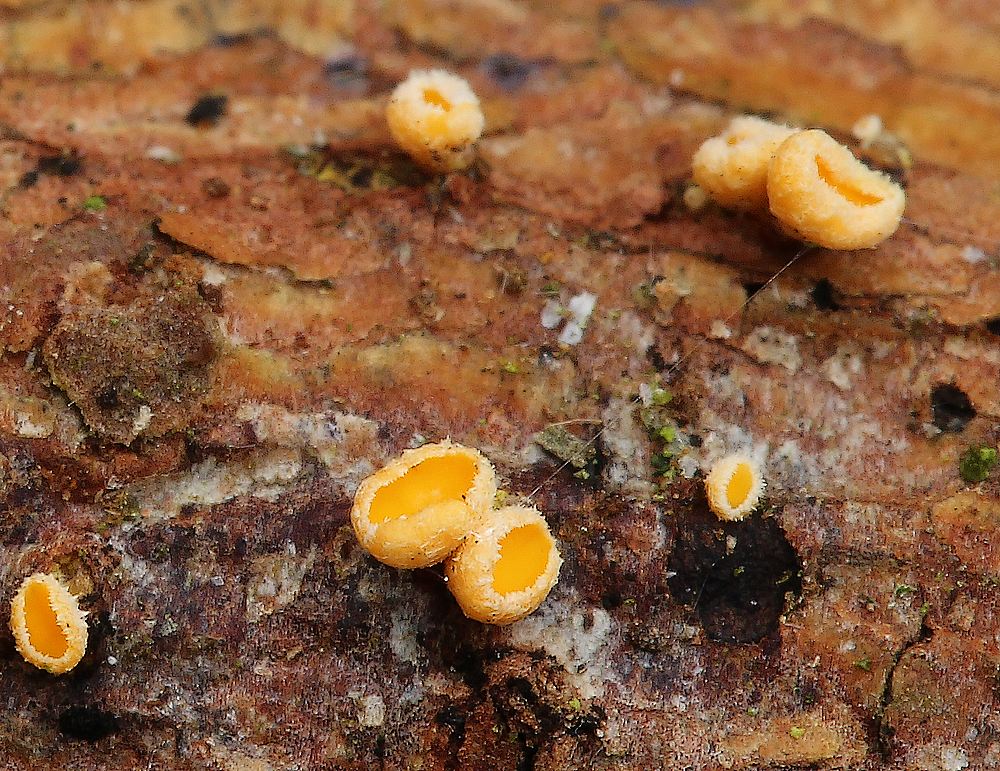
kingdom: Fungi
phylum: Ascomycota
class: Leotiomycetes
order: Helotiales
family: Lachnaceae
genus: Lachnellula
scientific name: Lachnellula occidentalis
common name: Larch disco
